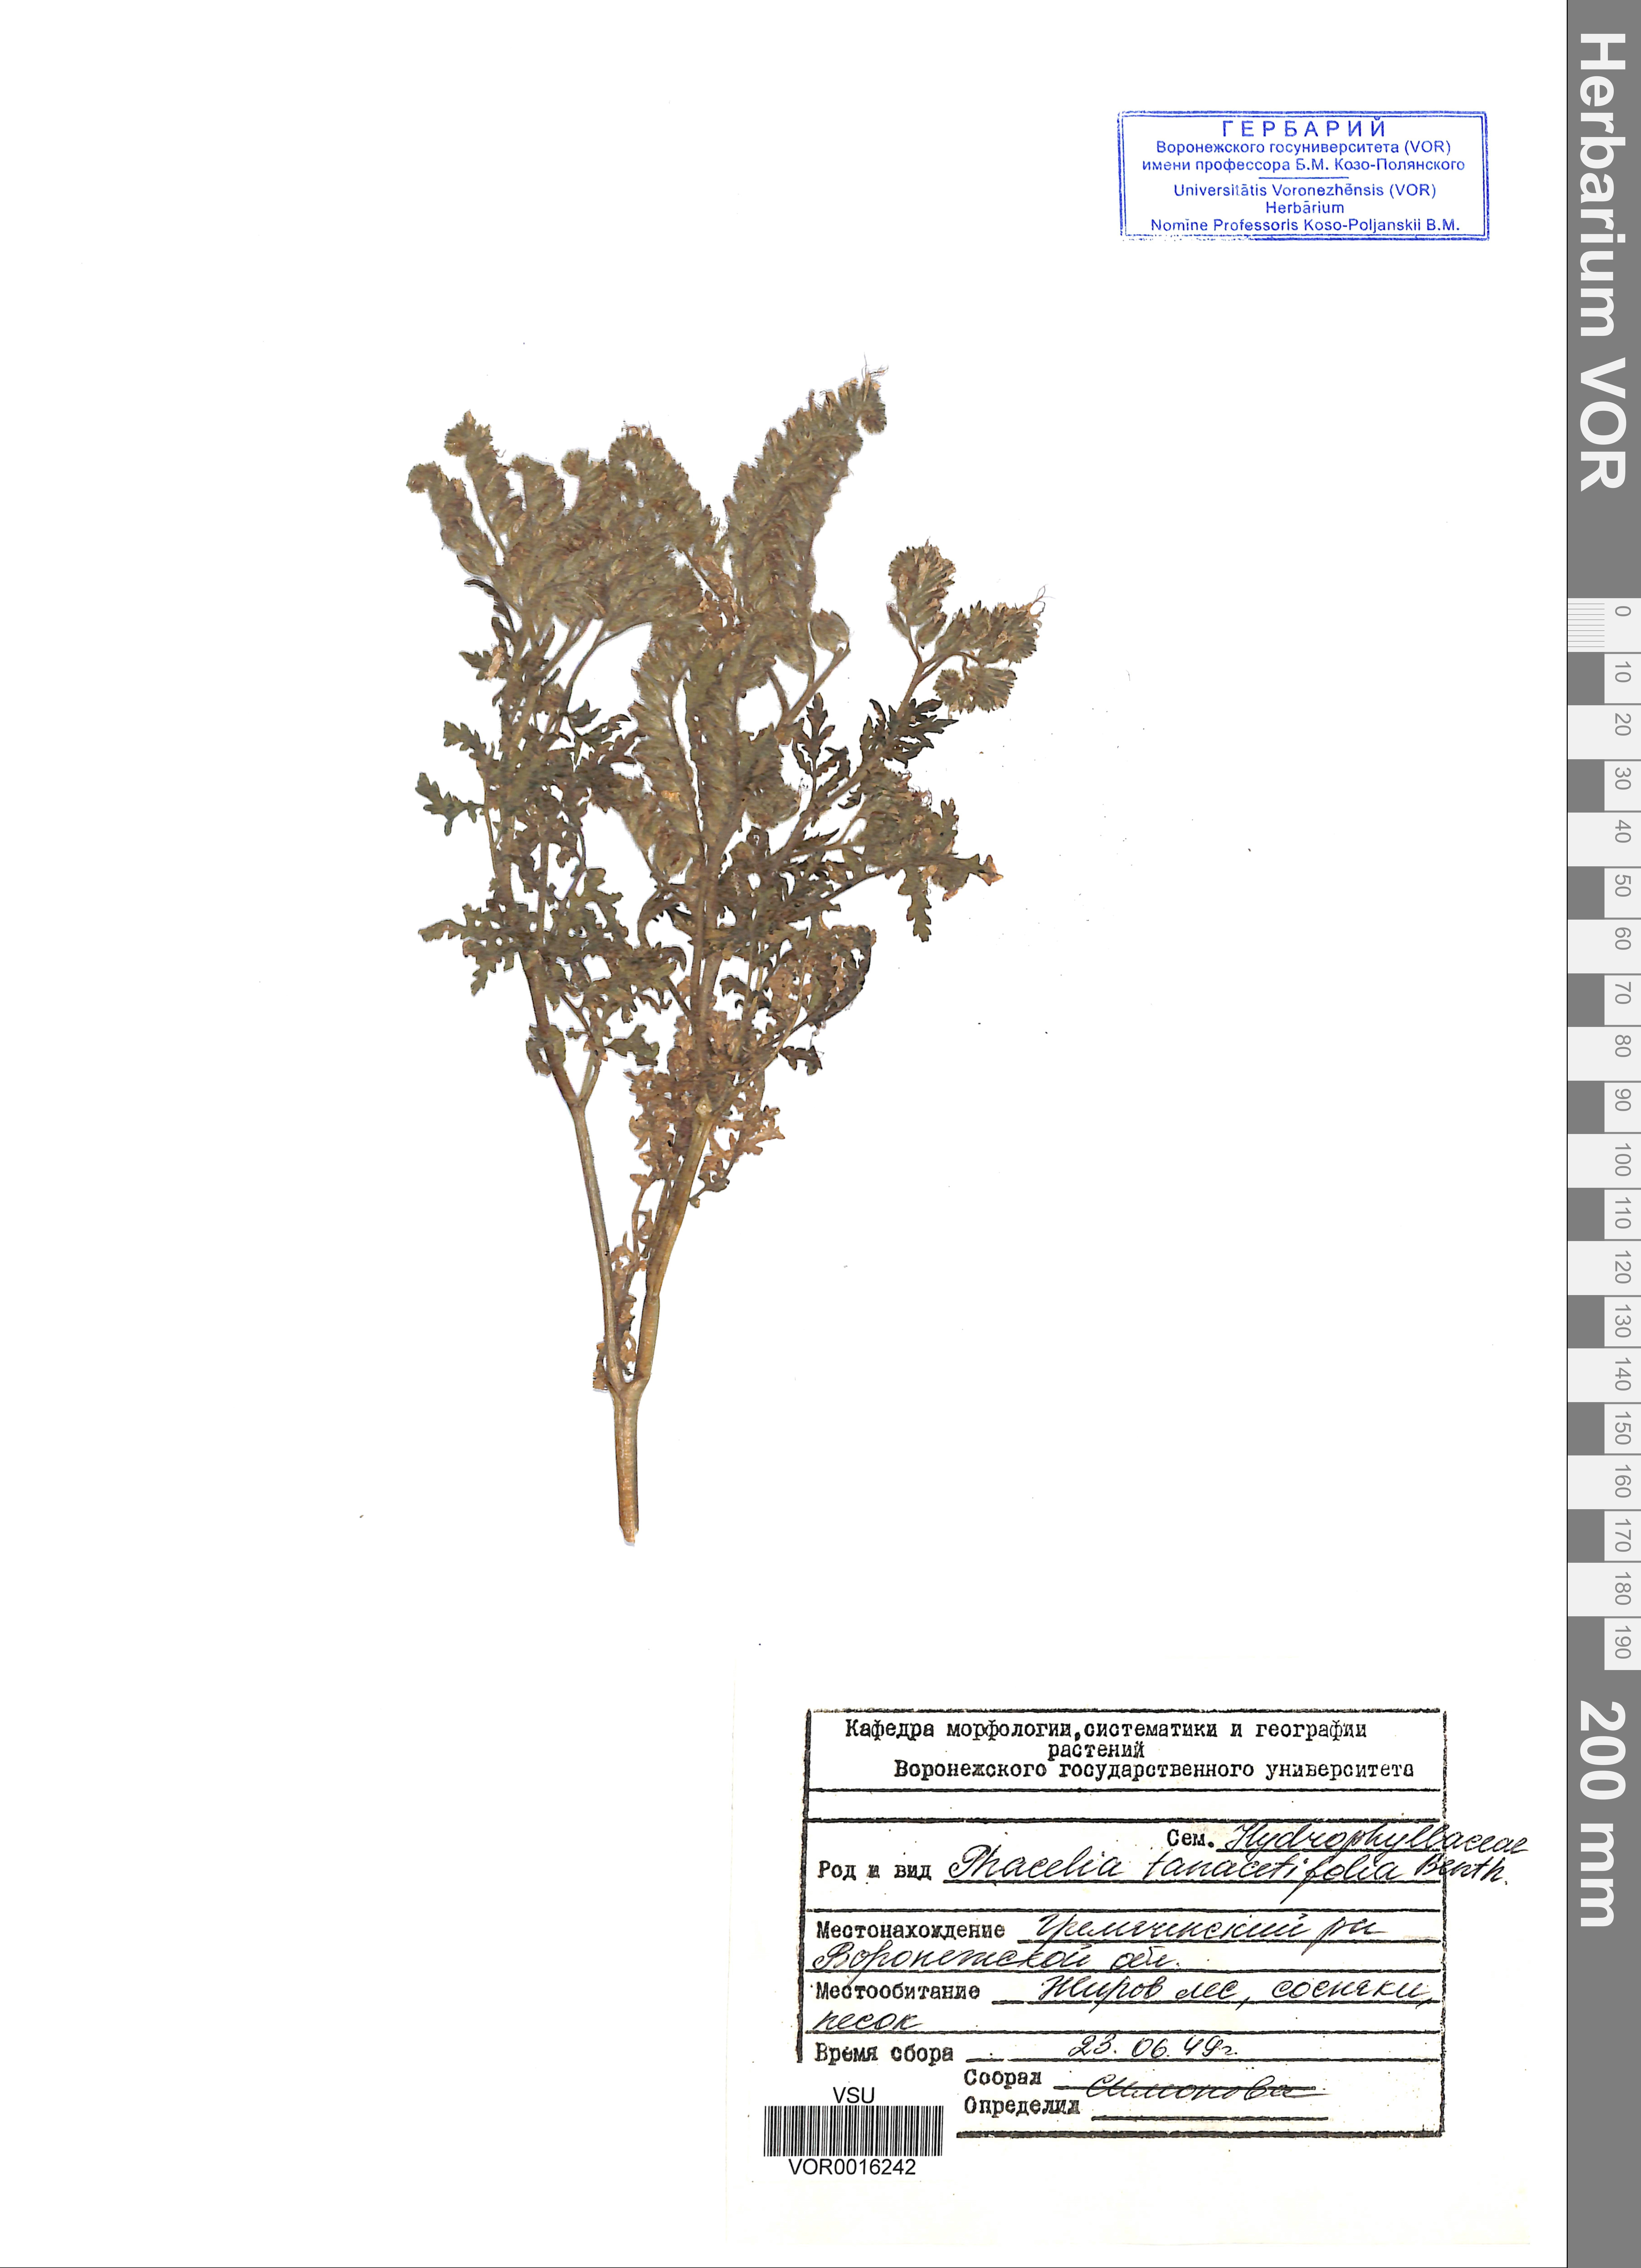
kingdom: Plantae
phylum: Tracheophyta
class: Magnoliopsida
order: Boraginales
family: Hydrophyllaceae
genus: Phacelia
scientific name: Phacelia tanacetifolia
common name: Phacelia
